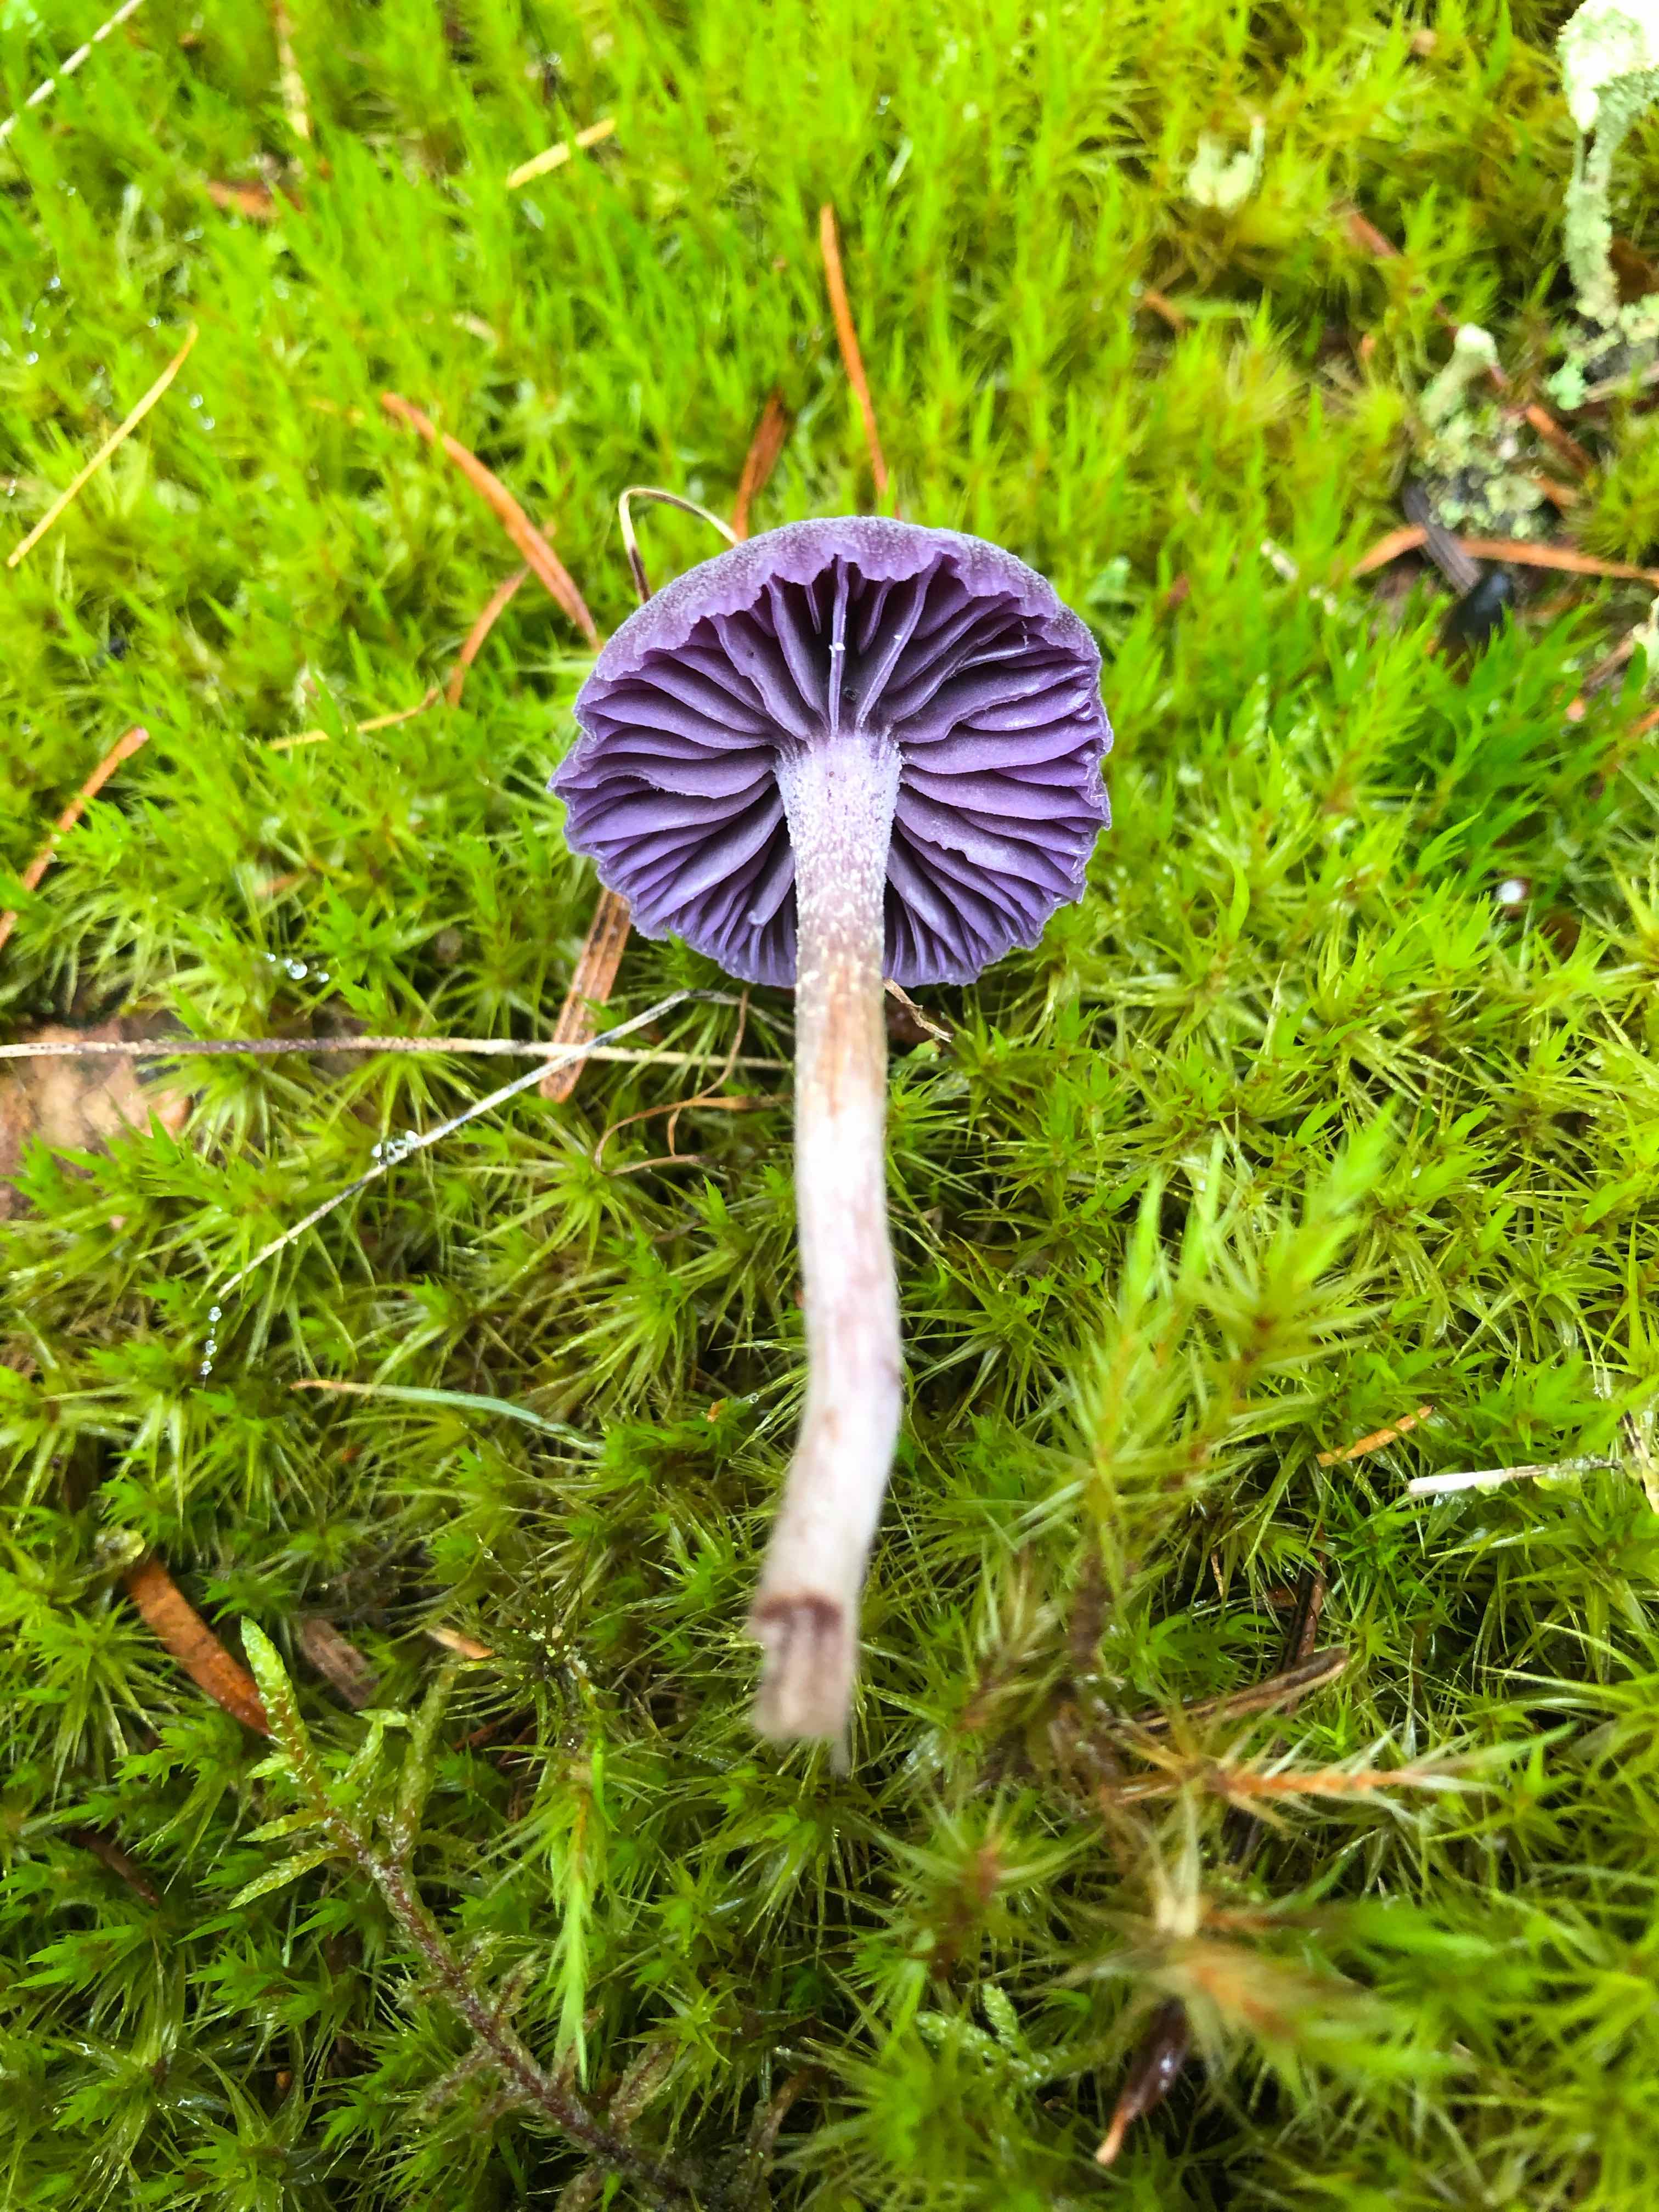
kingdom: Fungi
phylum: Basidiomycota
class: Agaricomycetes
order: Agaricales
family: Hydnangiaceae
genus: Laccaria
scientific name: Laccaria amethystina
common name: violet ametysthat
